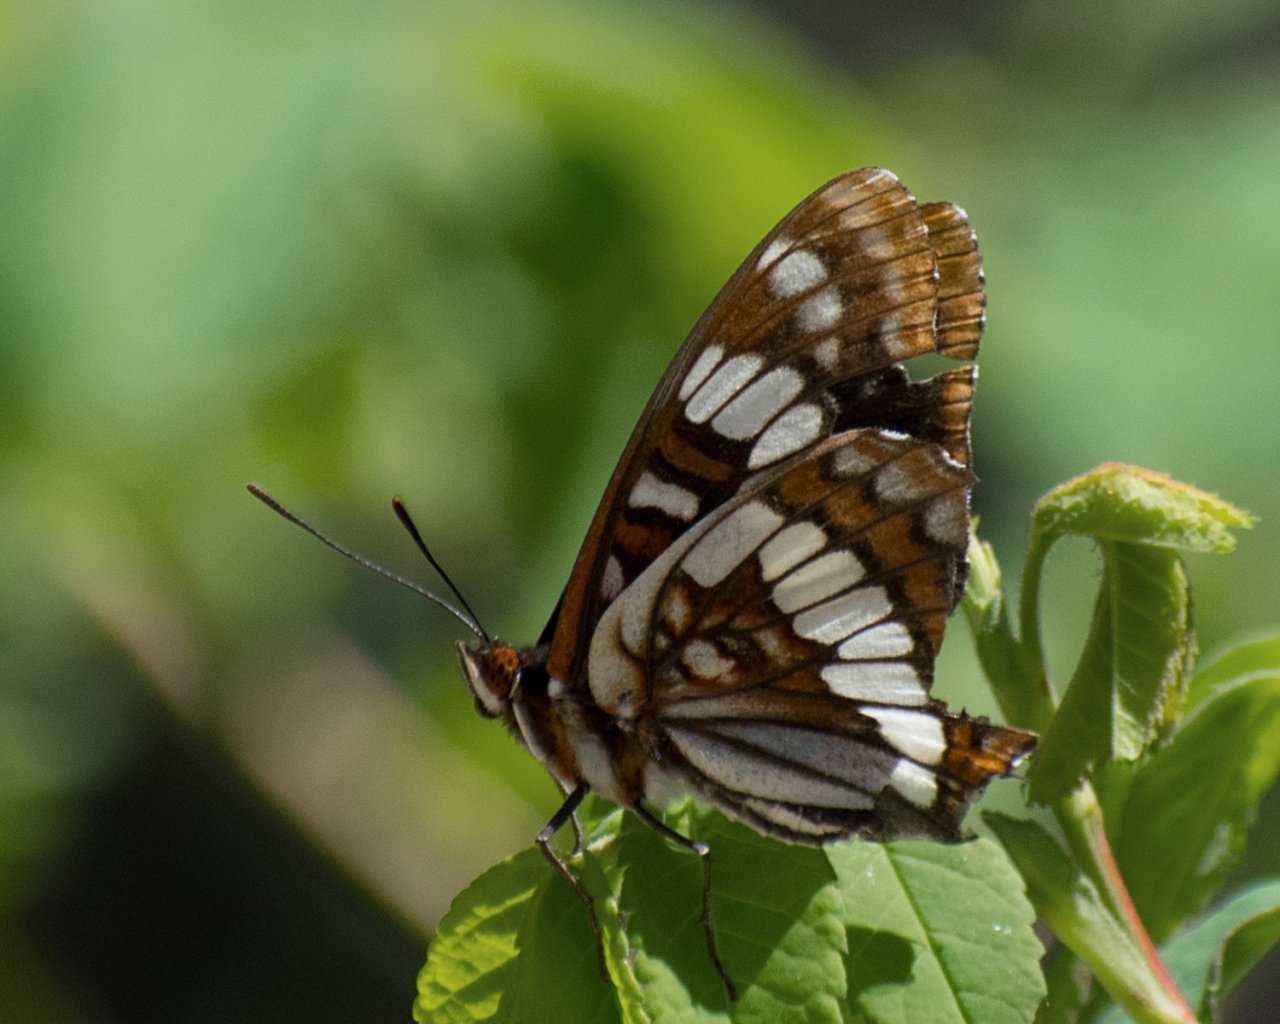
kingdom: Animalia
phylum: Arthropoda
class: Insecta
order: Lepidoptera
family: Nymphalidae
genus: Limenitis
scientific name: Limenitis lorquini
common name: Lorquin's Admiral
